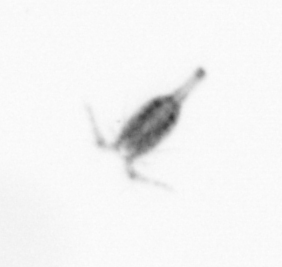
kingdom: Animalia
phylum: Arthropoda
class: Copepoda
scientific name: Copepoda
